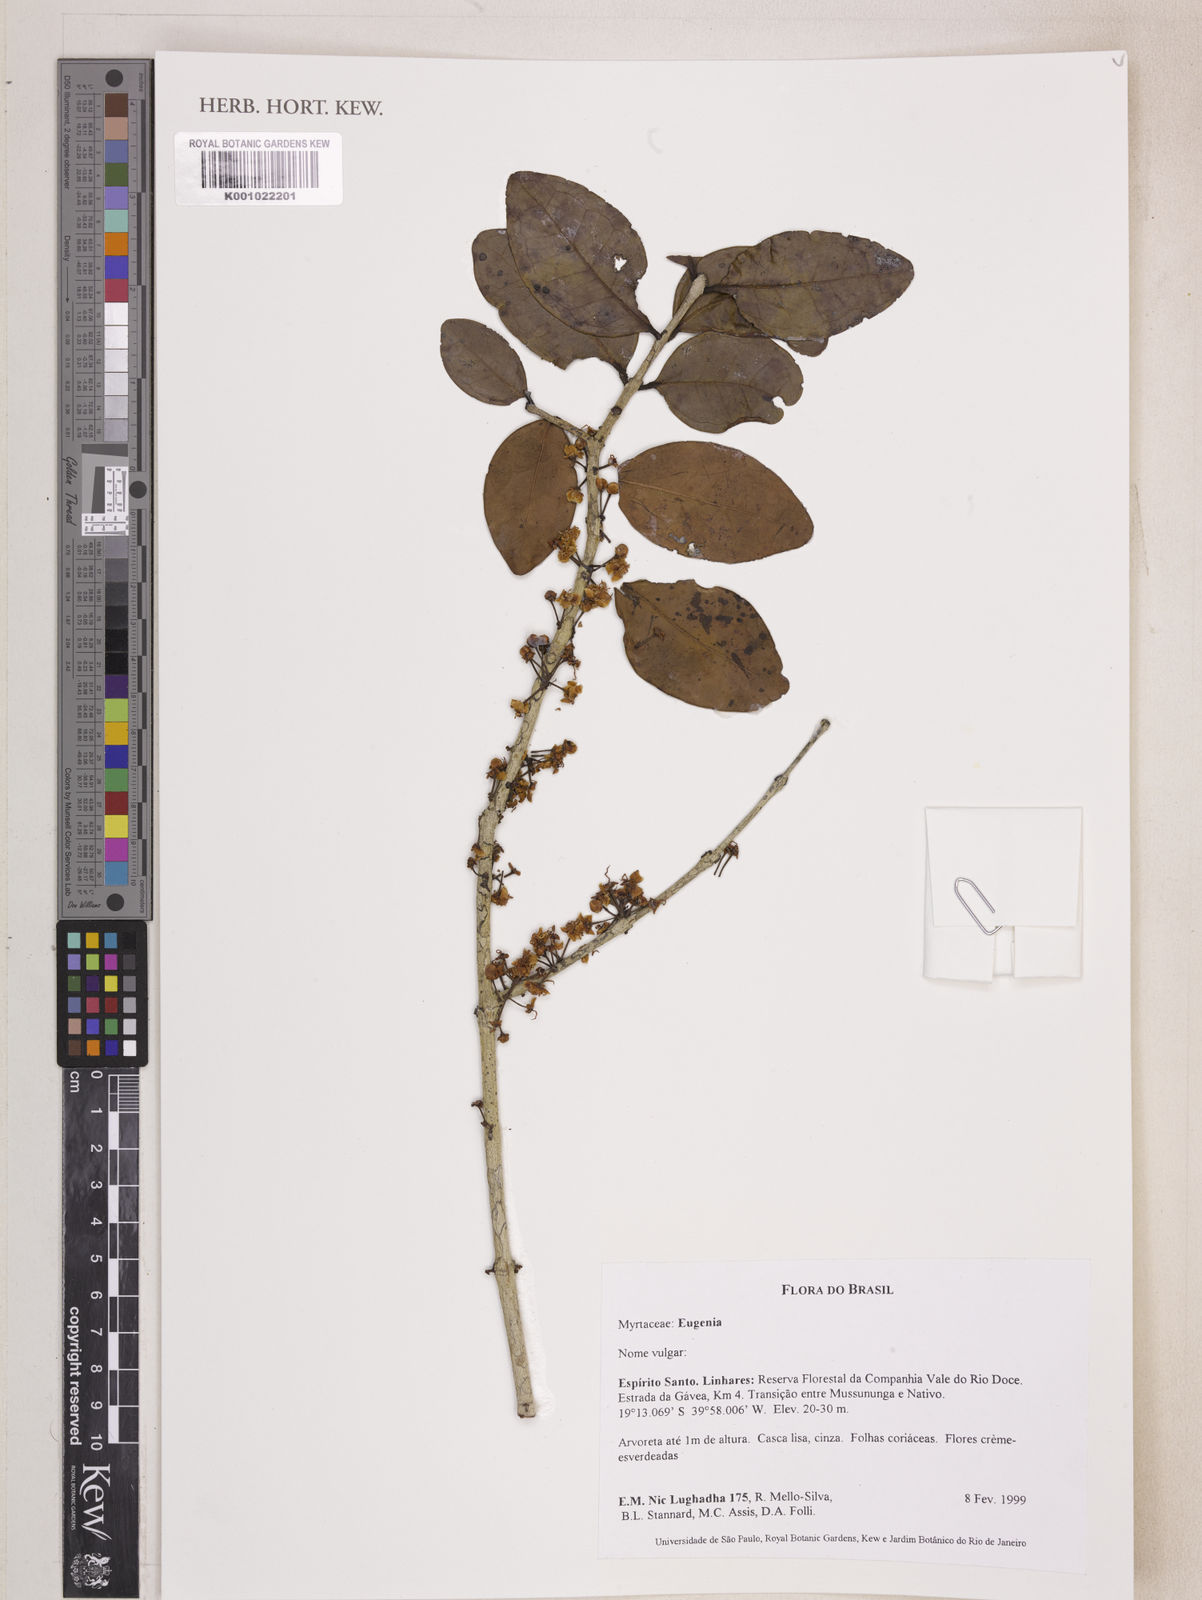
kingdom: Plantae
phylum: Tracheophyta
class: Magnoliopsida
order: Myrtales
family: Myrtaceae
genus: Eugenia
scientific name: Eugenia maritima
